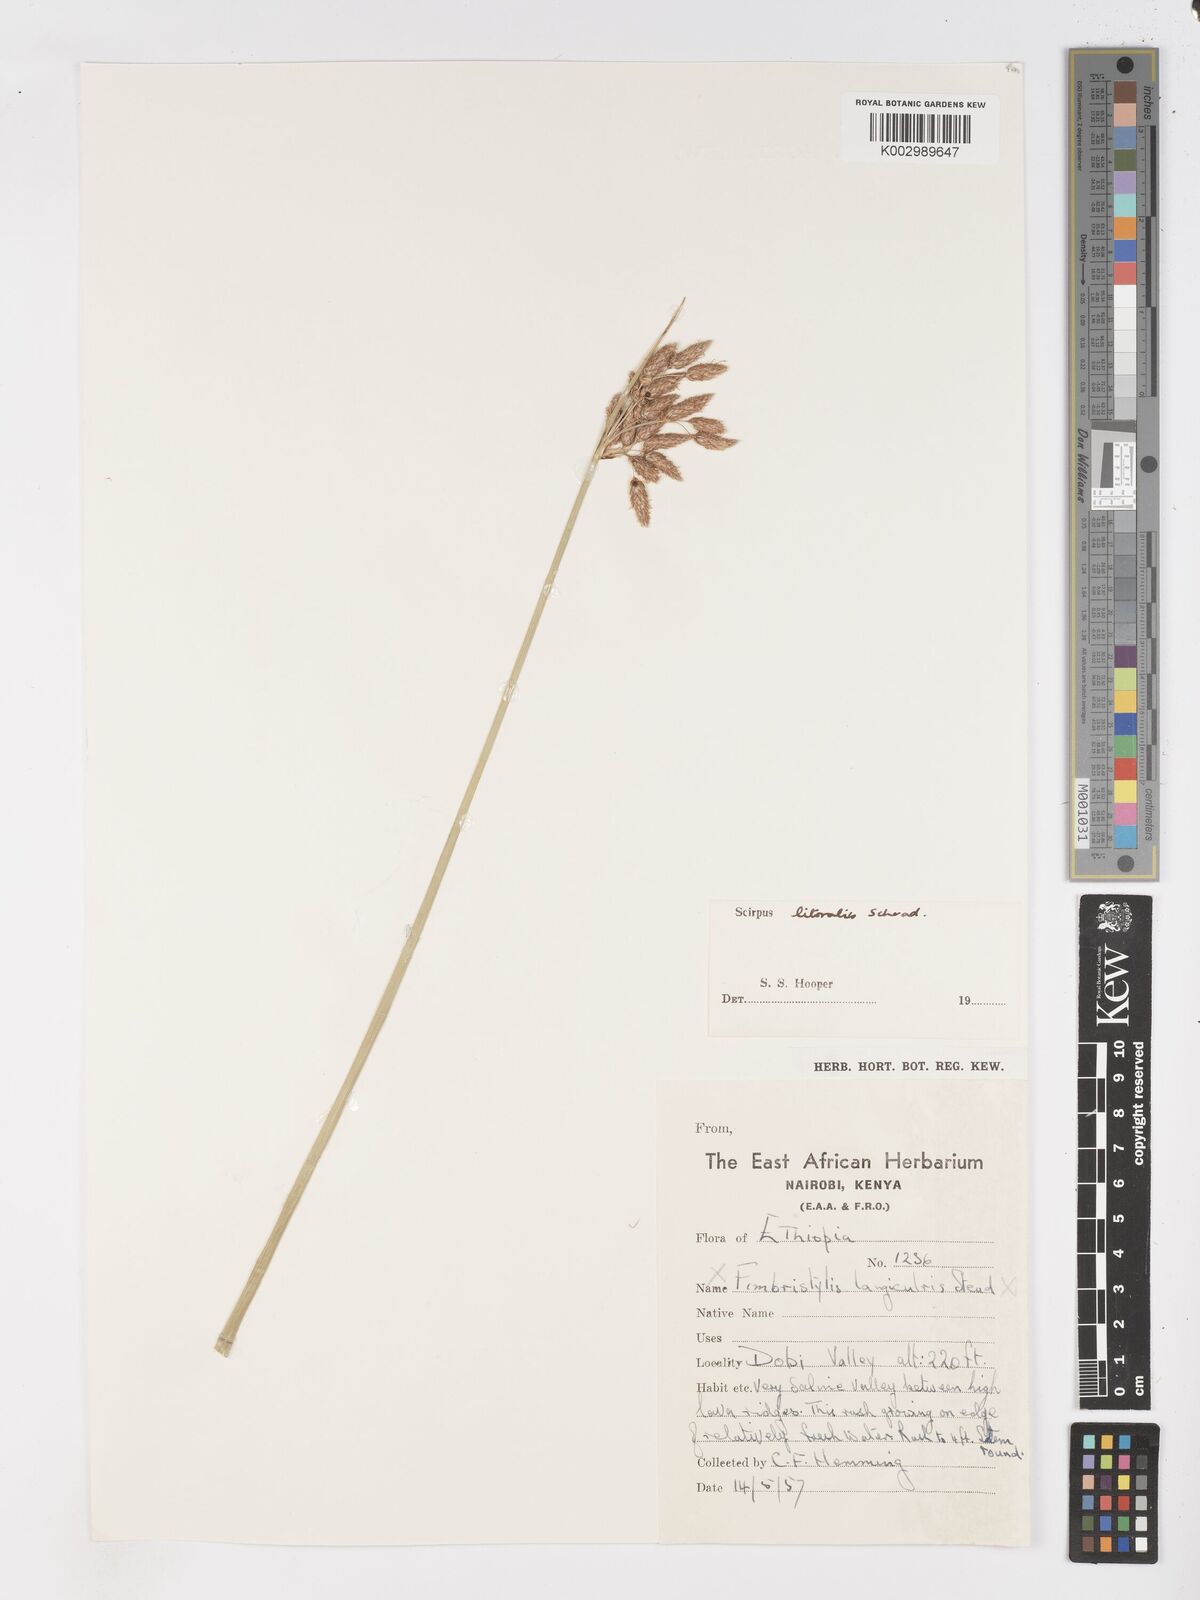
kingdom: Plantae
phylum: Tracheophyta
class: Liliopsida
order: Poales
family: Cyperaceae
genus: Schoenoplectus
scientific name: Schoenoplectus litoralis
